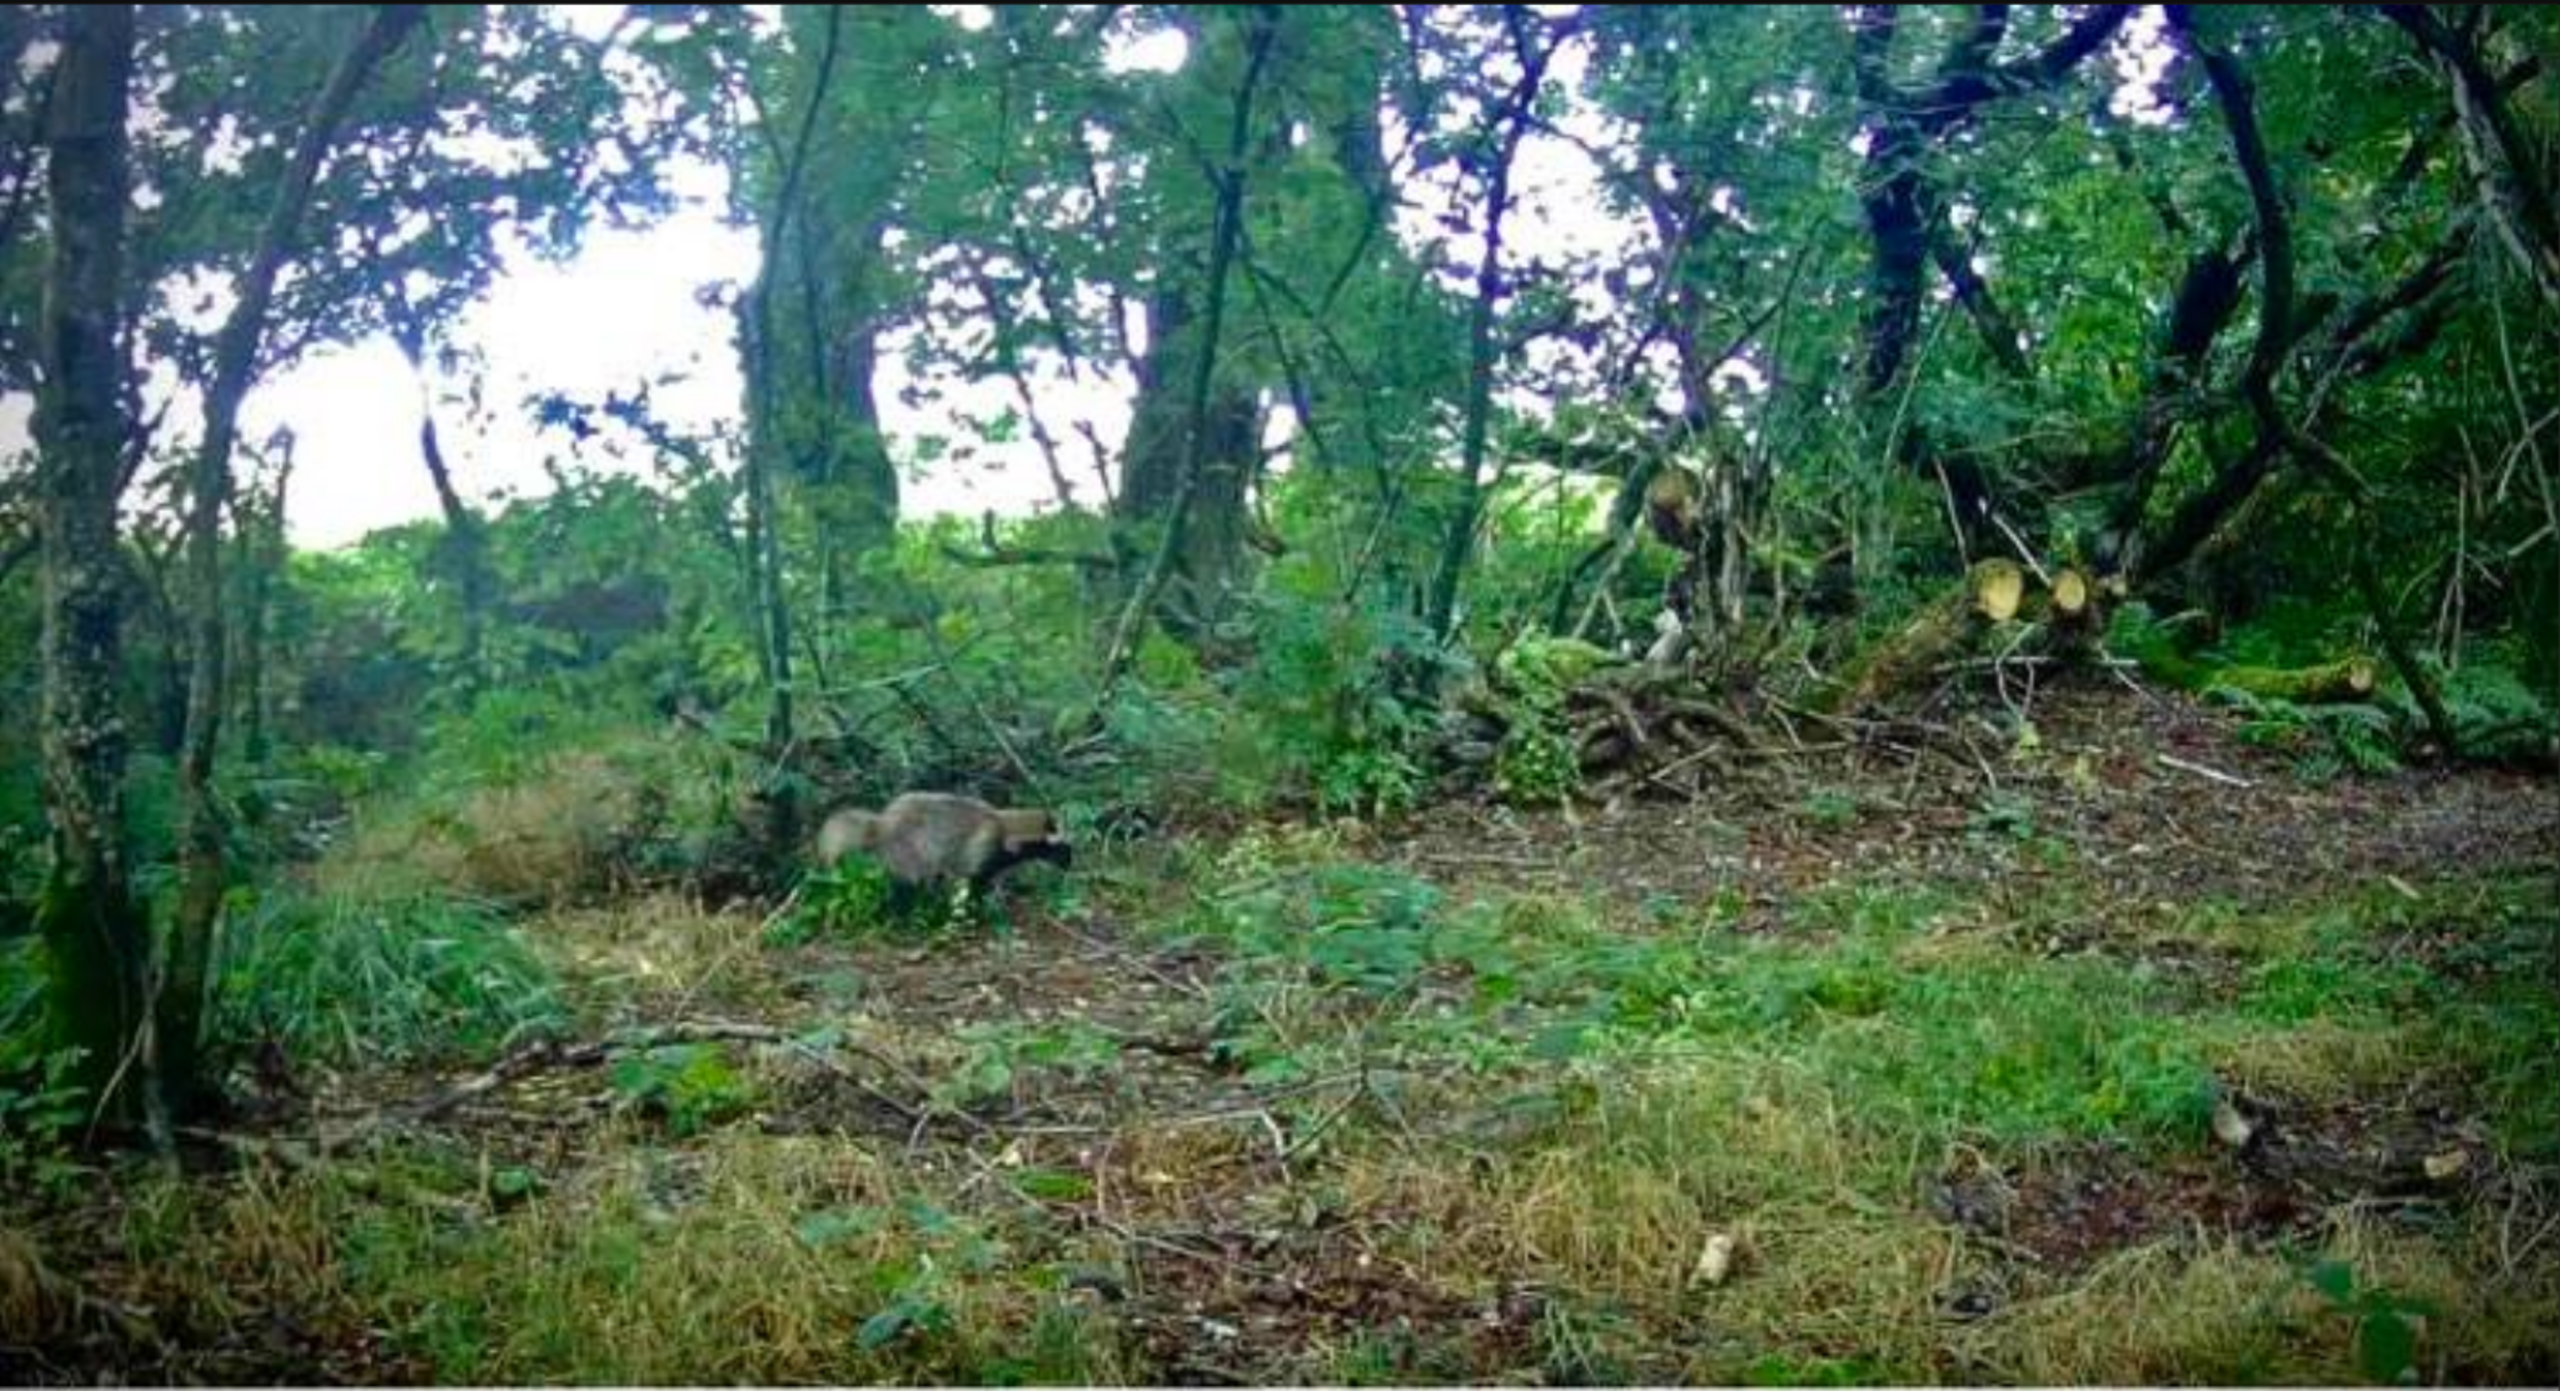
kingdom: Animalia
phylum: Chordata
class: Mammalia
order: Carnivora
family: Canidae
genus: Nyctereutes
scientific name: Nyctereutes procyonoides
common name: Mårhund
